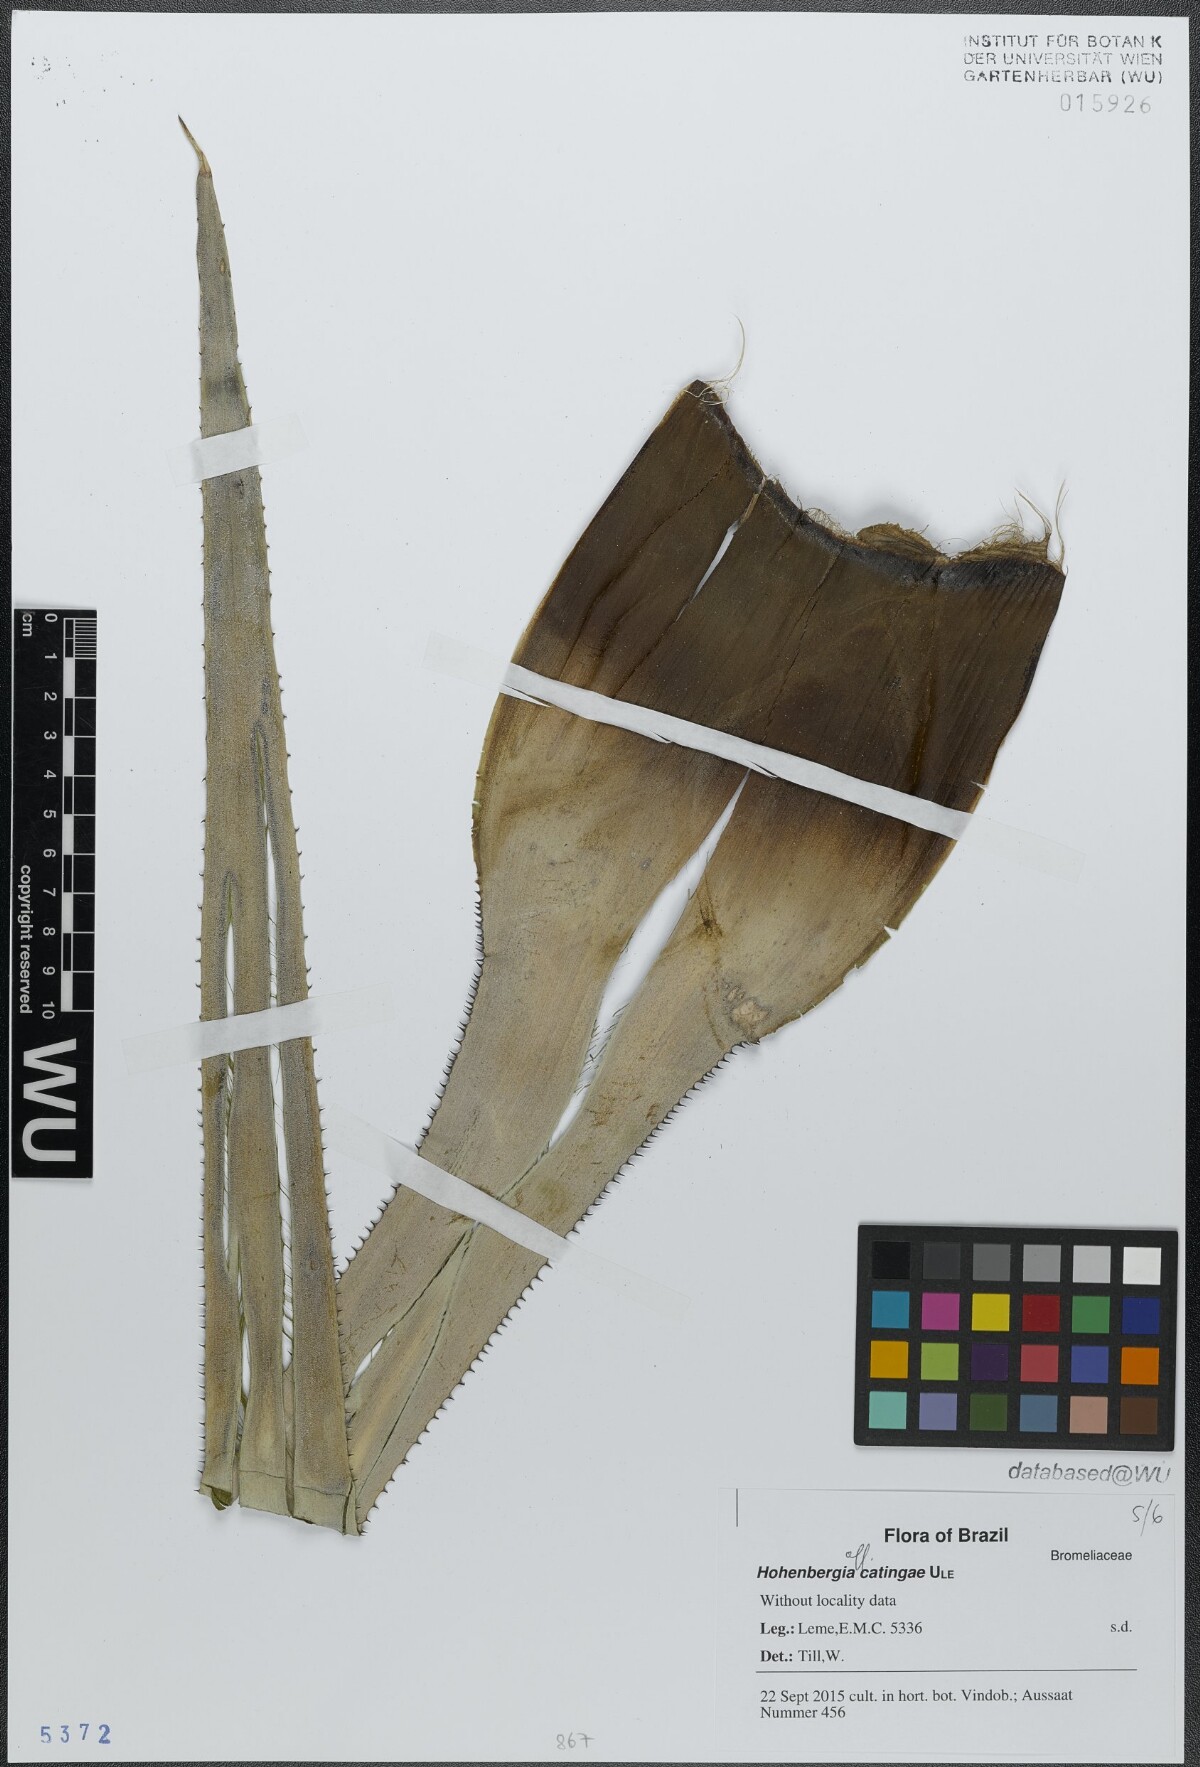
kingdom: Plantae
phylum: Tracheophyta
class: Liliopsida
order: Poales
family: Bromeliaceae
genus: Hohenbergia
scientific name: Hohenbergia catingae
